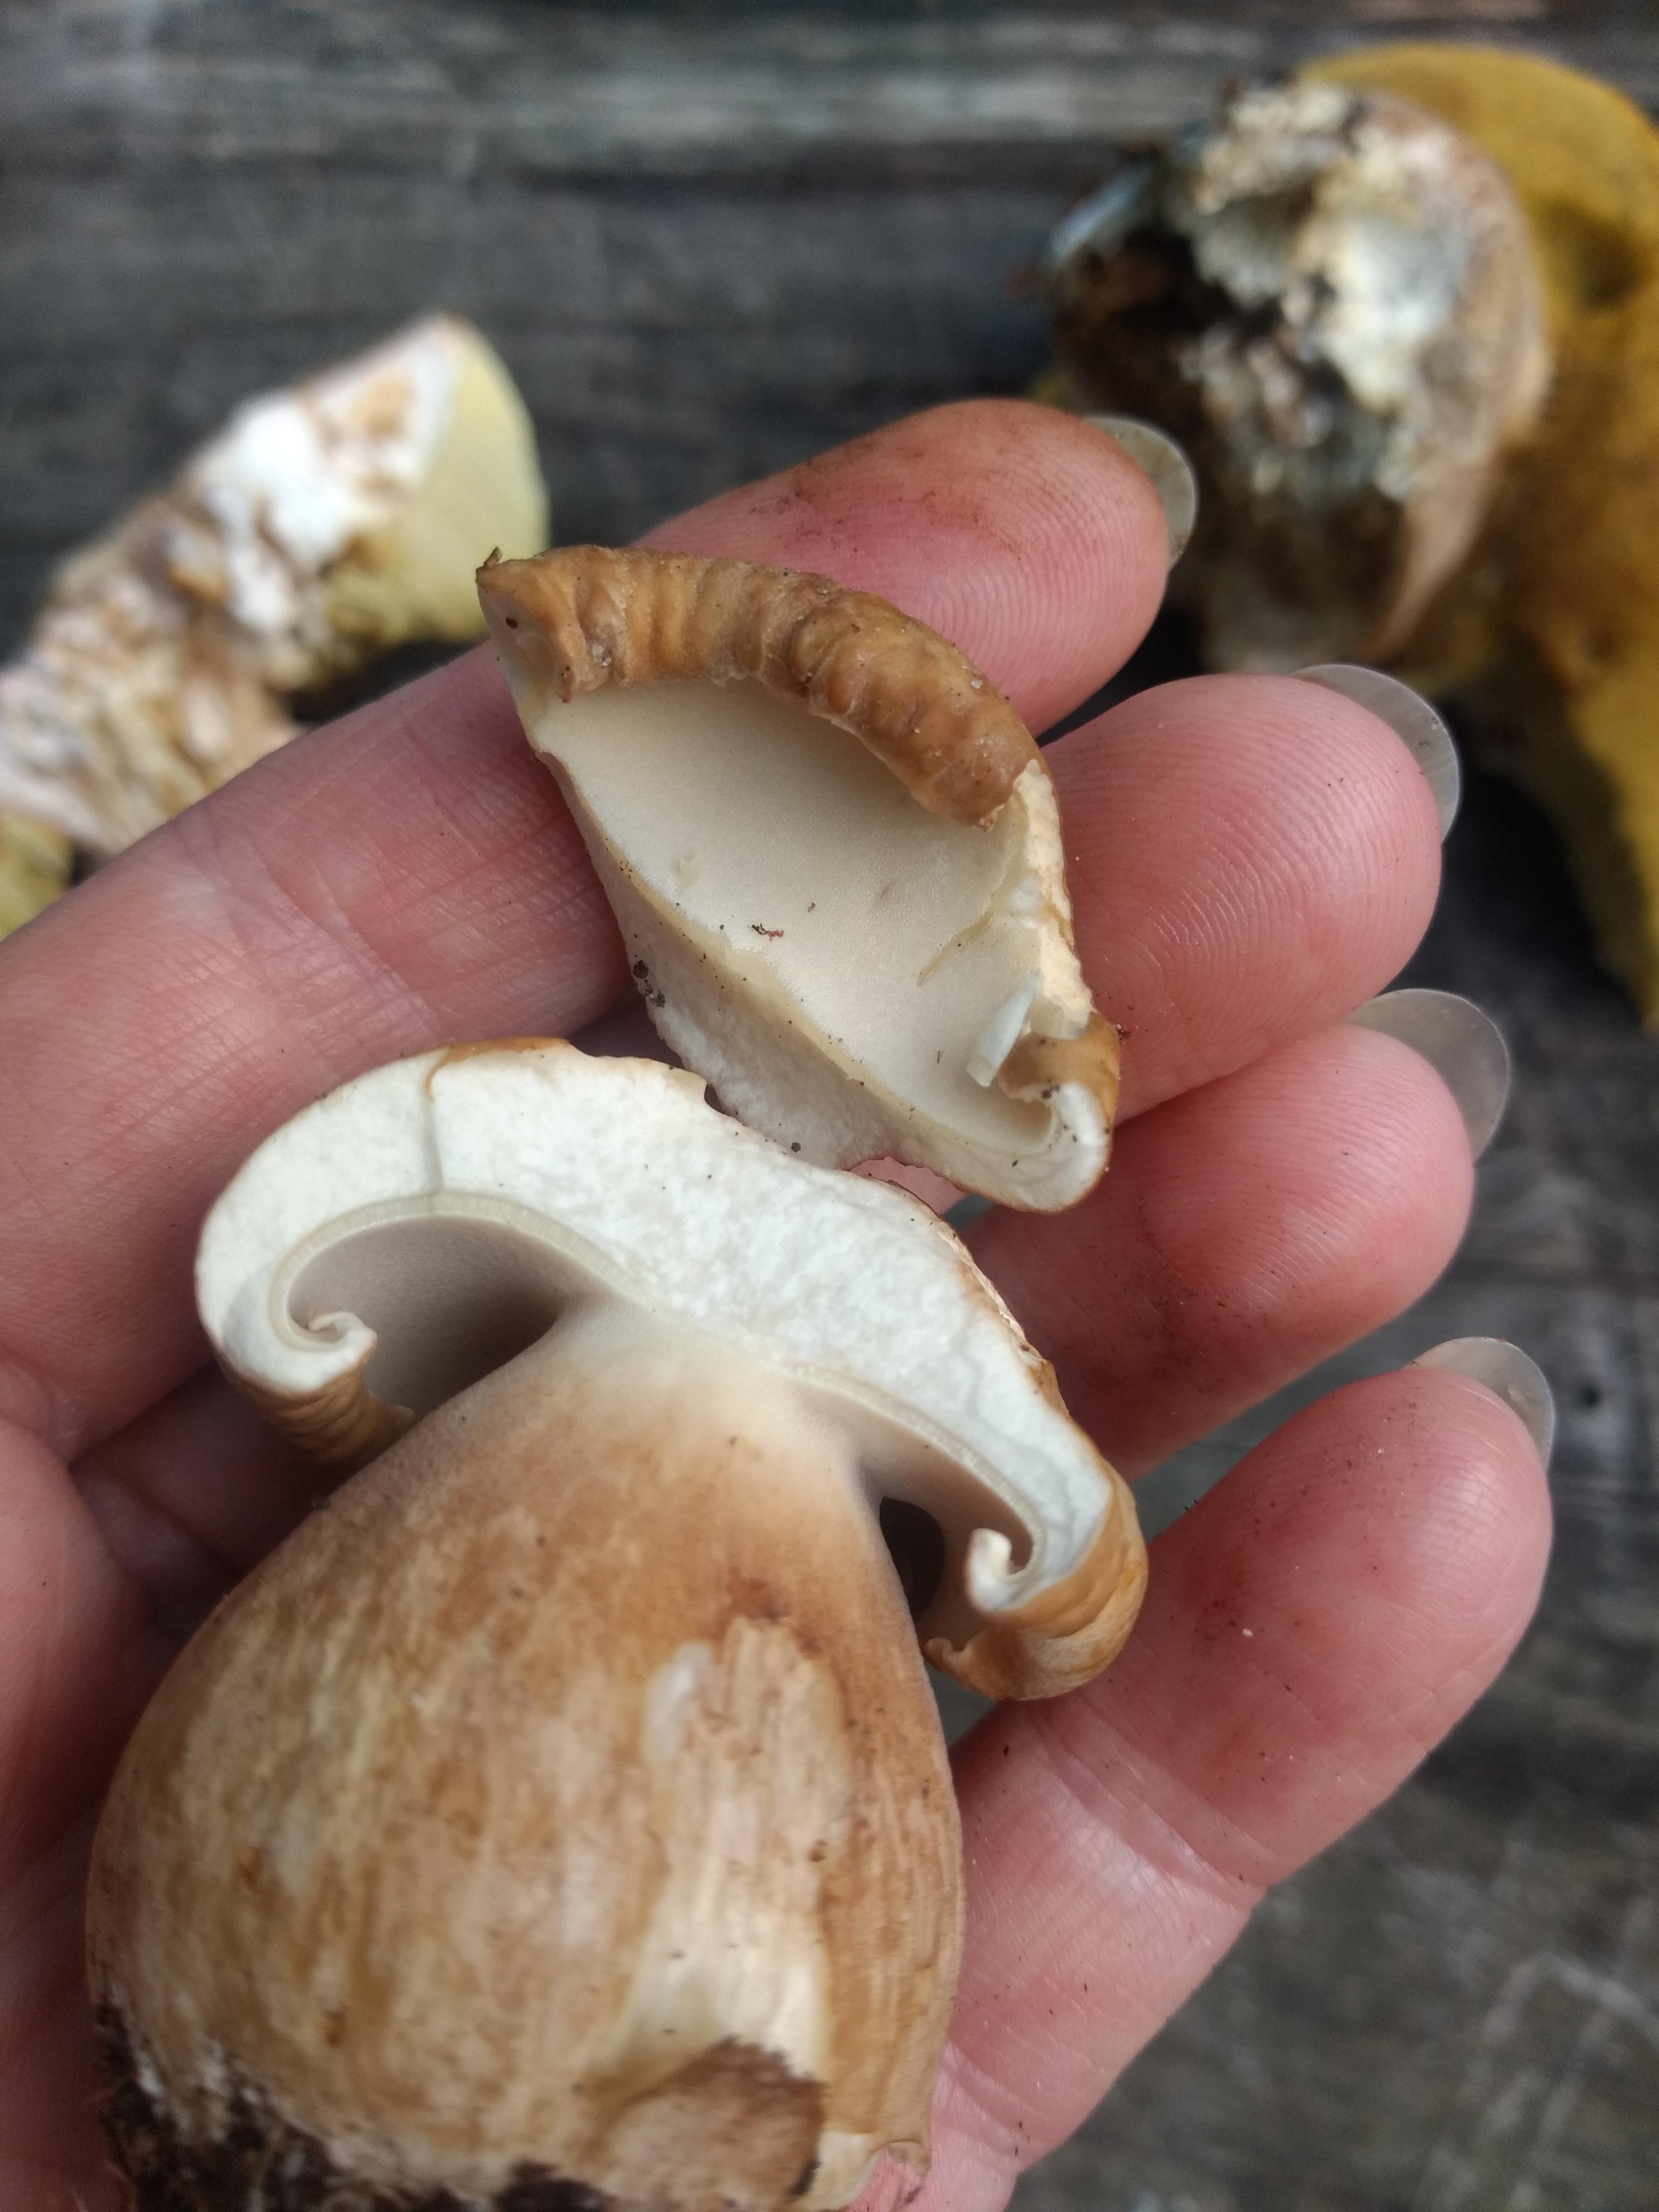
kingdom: Fungi
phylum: Basidiomycota
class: Agaricomycetes
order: Boletales
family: Boletaceae
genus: Boletus
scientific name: Boletus reticulatus
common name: sommer-rørhat
